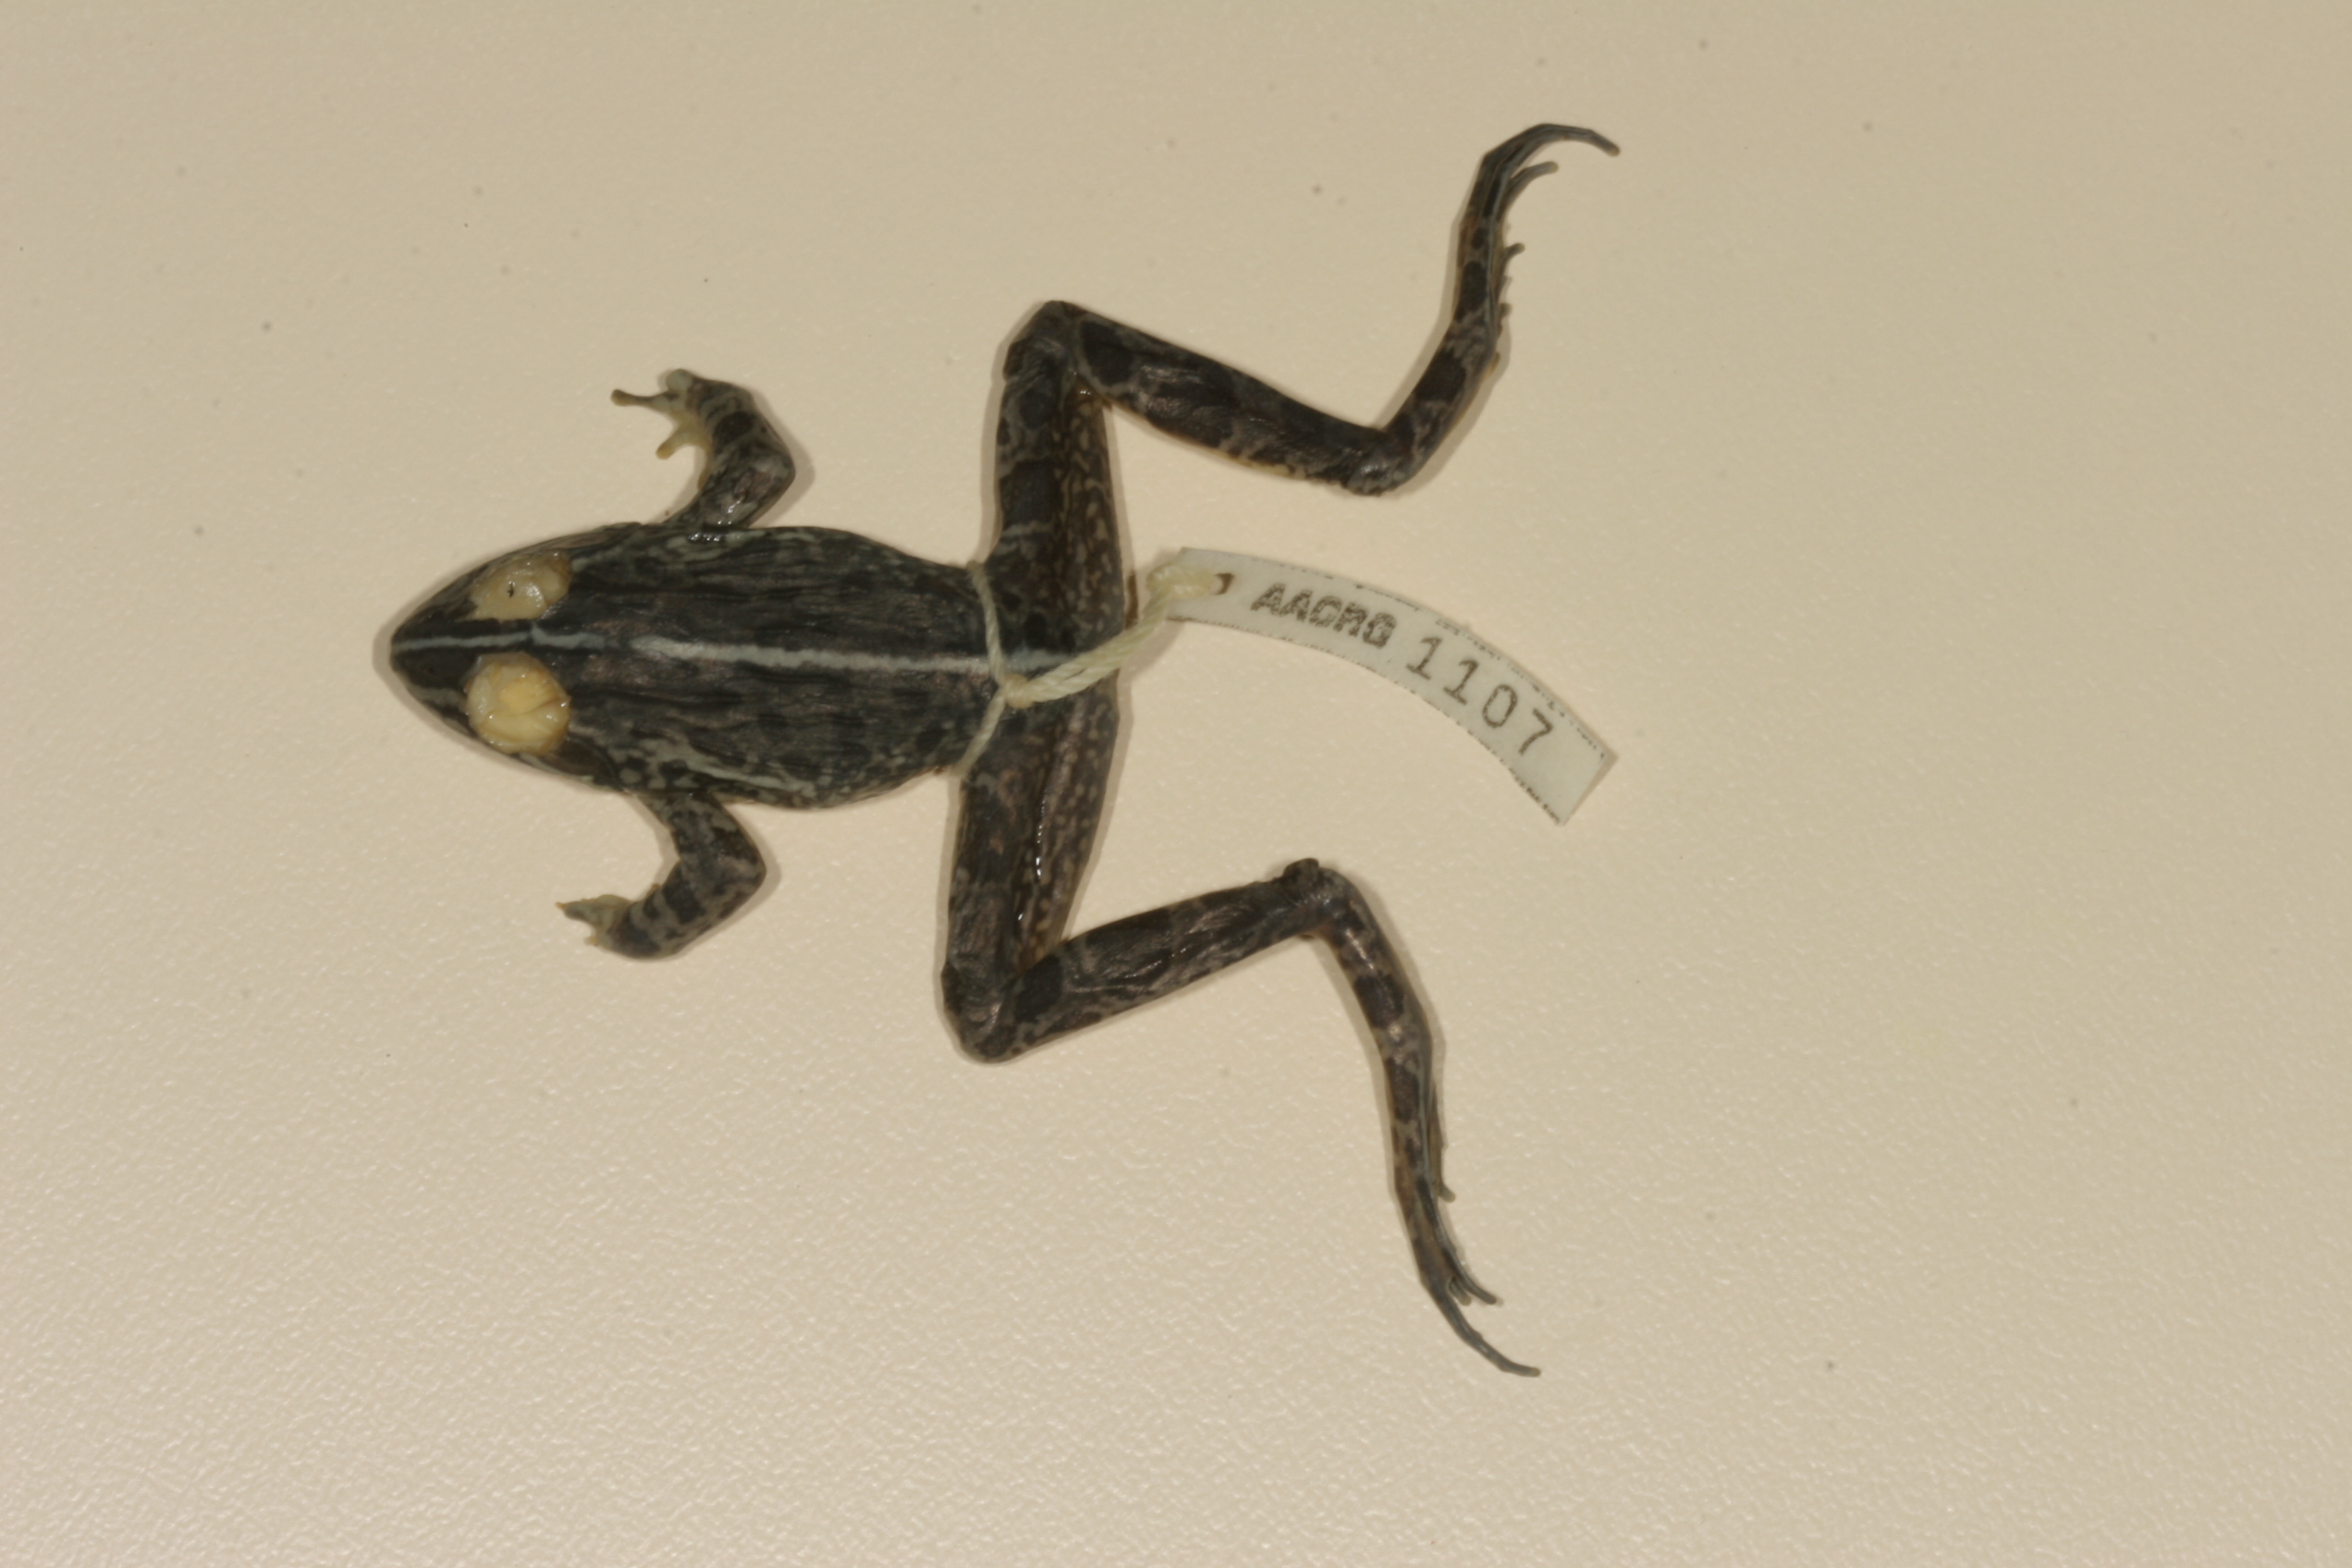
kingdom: Animalia
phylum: Chordata
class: Amphibia
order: Anura
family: Pyxicephalidae
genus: Amietia
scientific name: Amietia delalandii
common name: Delalande's river frog
